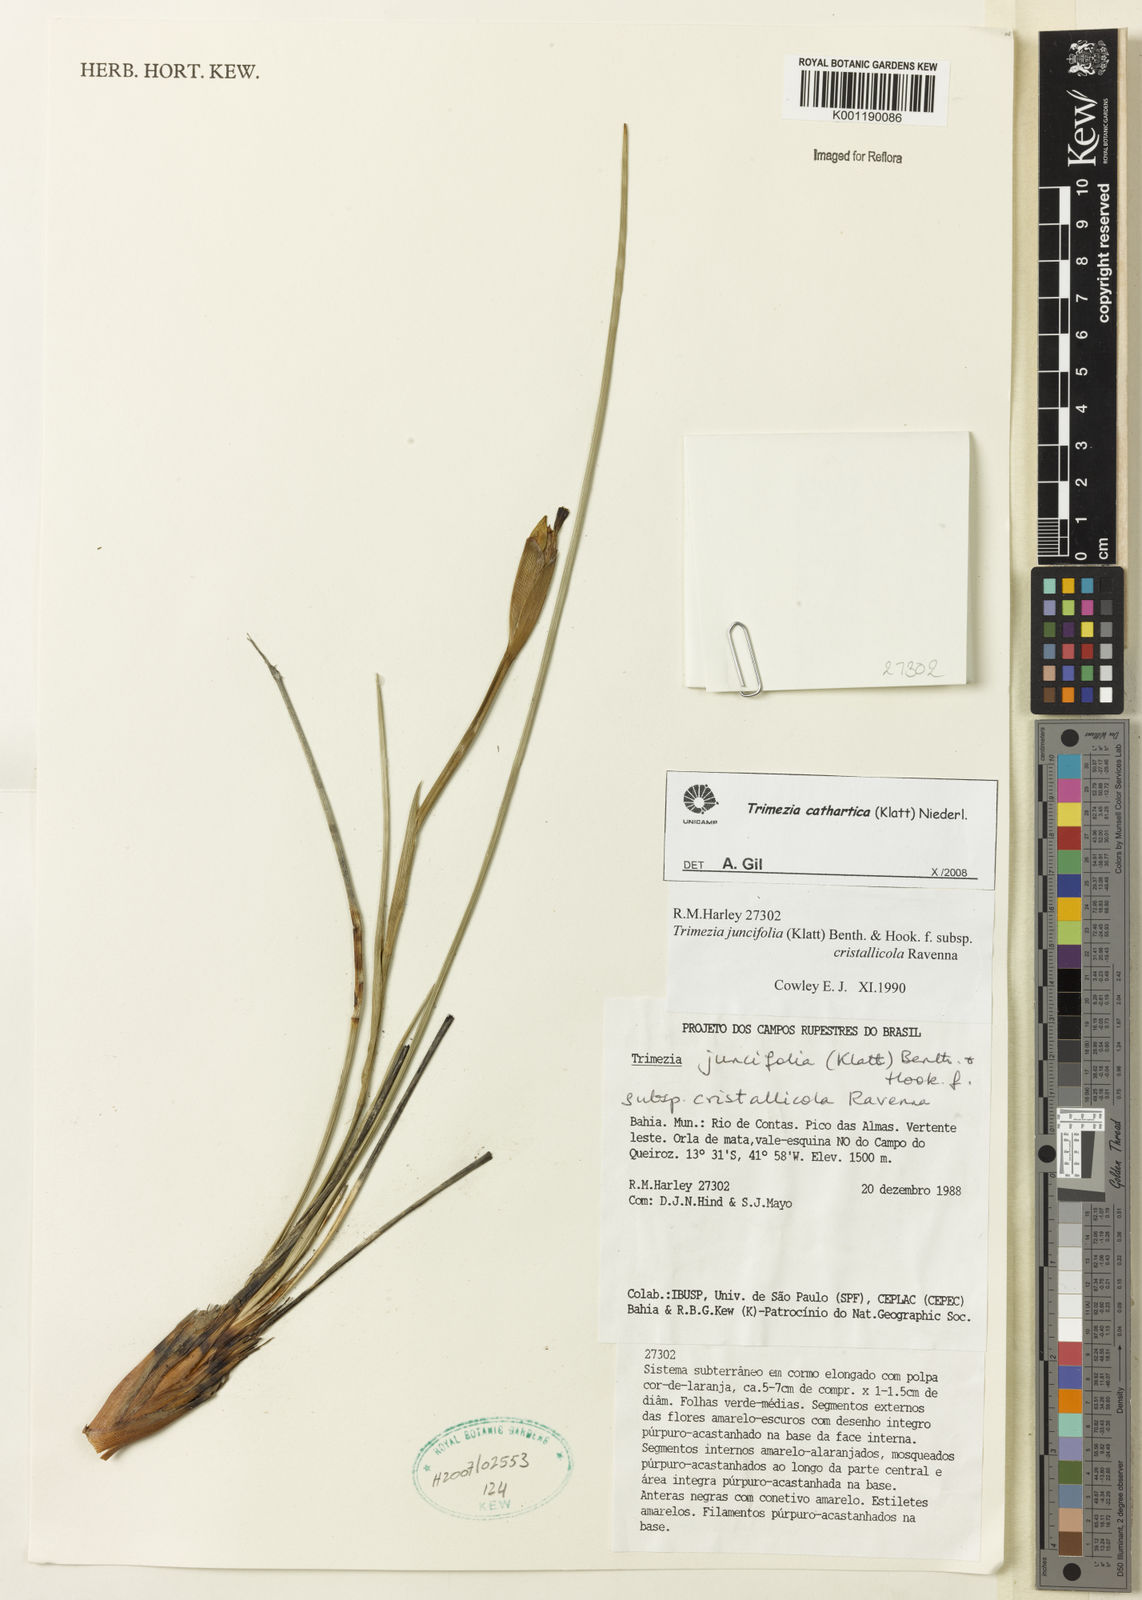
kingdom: Plantae
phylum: Tracheophyta
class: Liliopsida
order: Asparagales
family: Iridaceae
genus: Trimezia
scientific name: Trimezia cathartica
